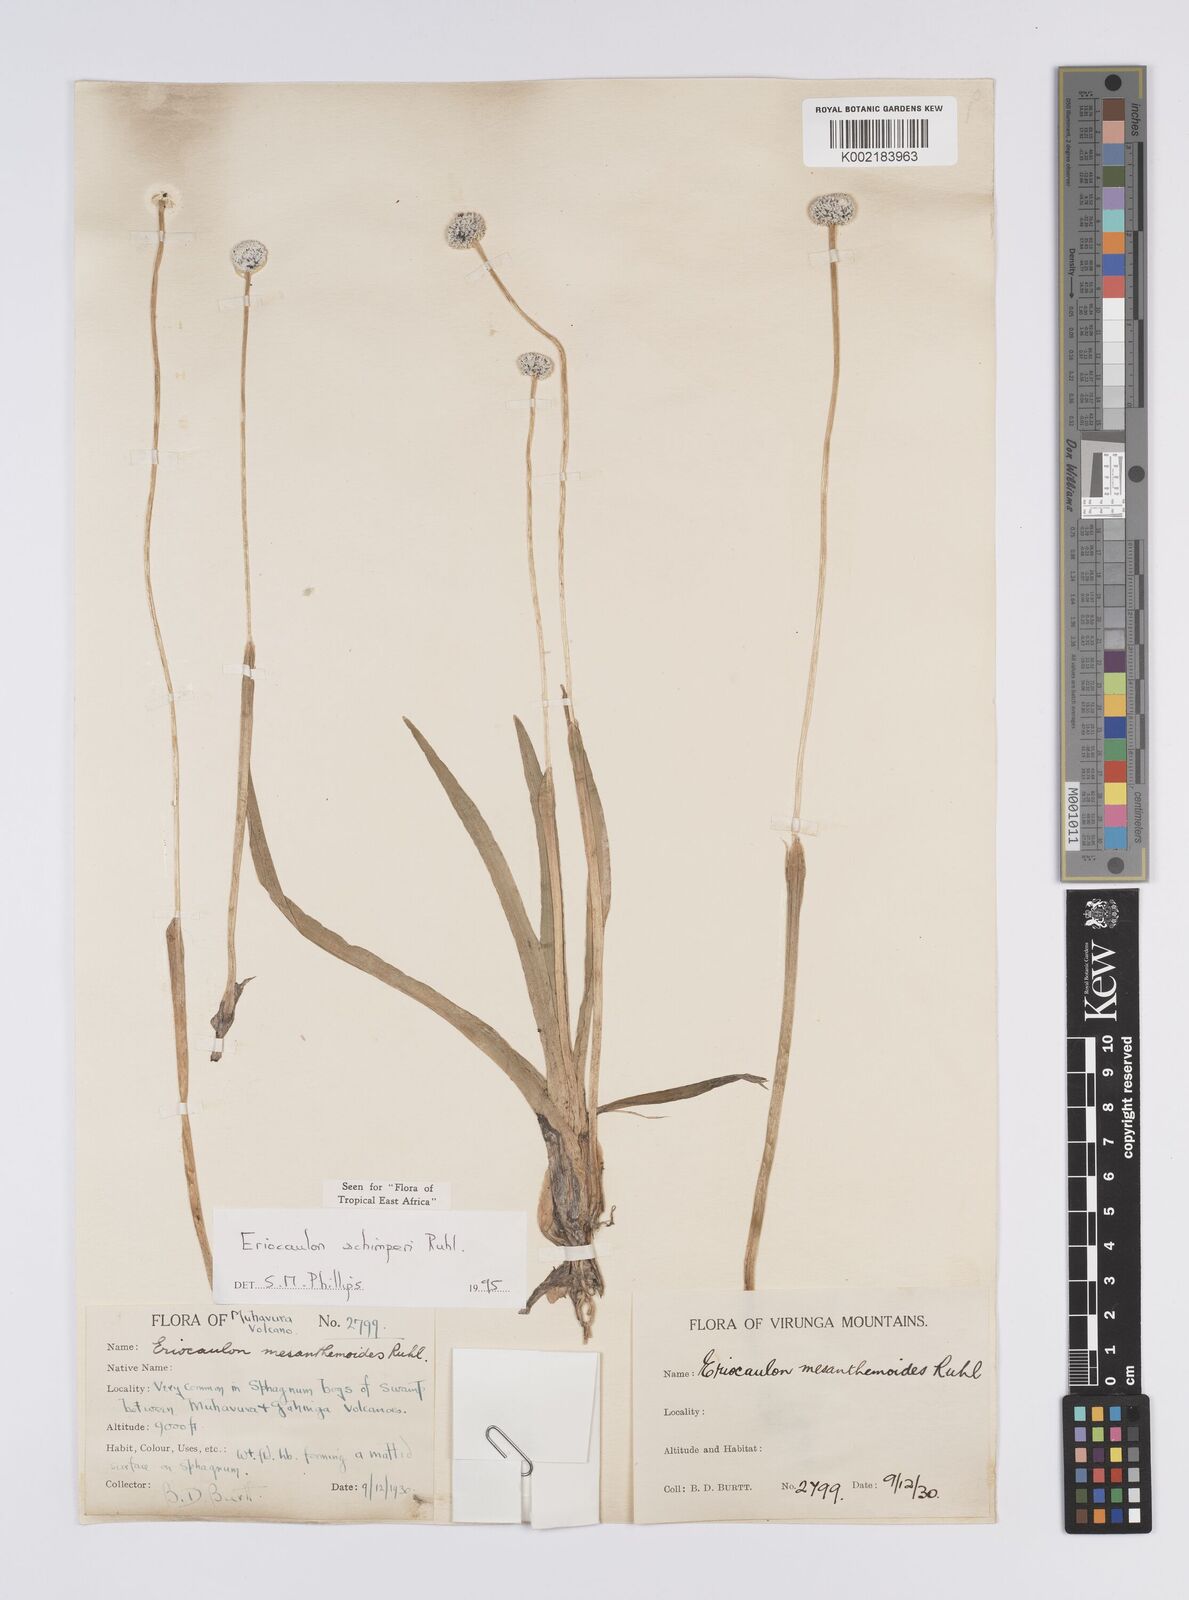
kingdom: Plantae
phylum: Tracheophyta
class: Liliopsida
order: Poales
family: Eriocaulaceae
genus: Eriocaulon
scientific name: Eriocaulon schimperi
